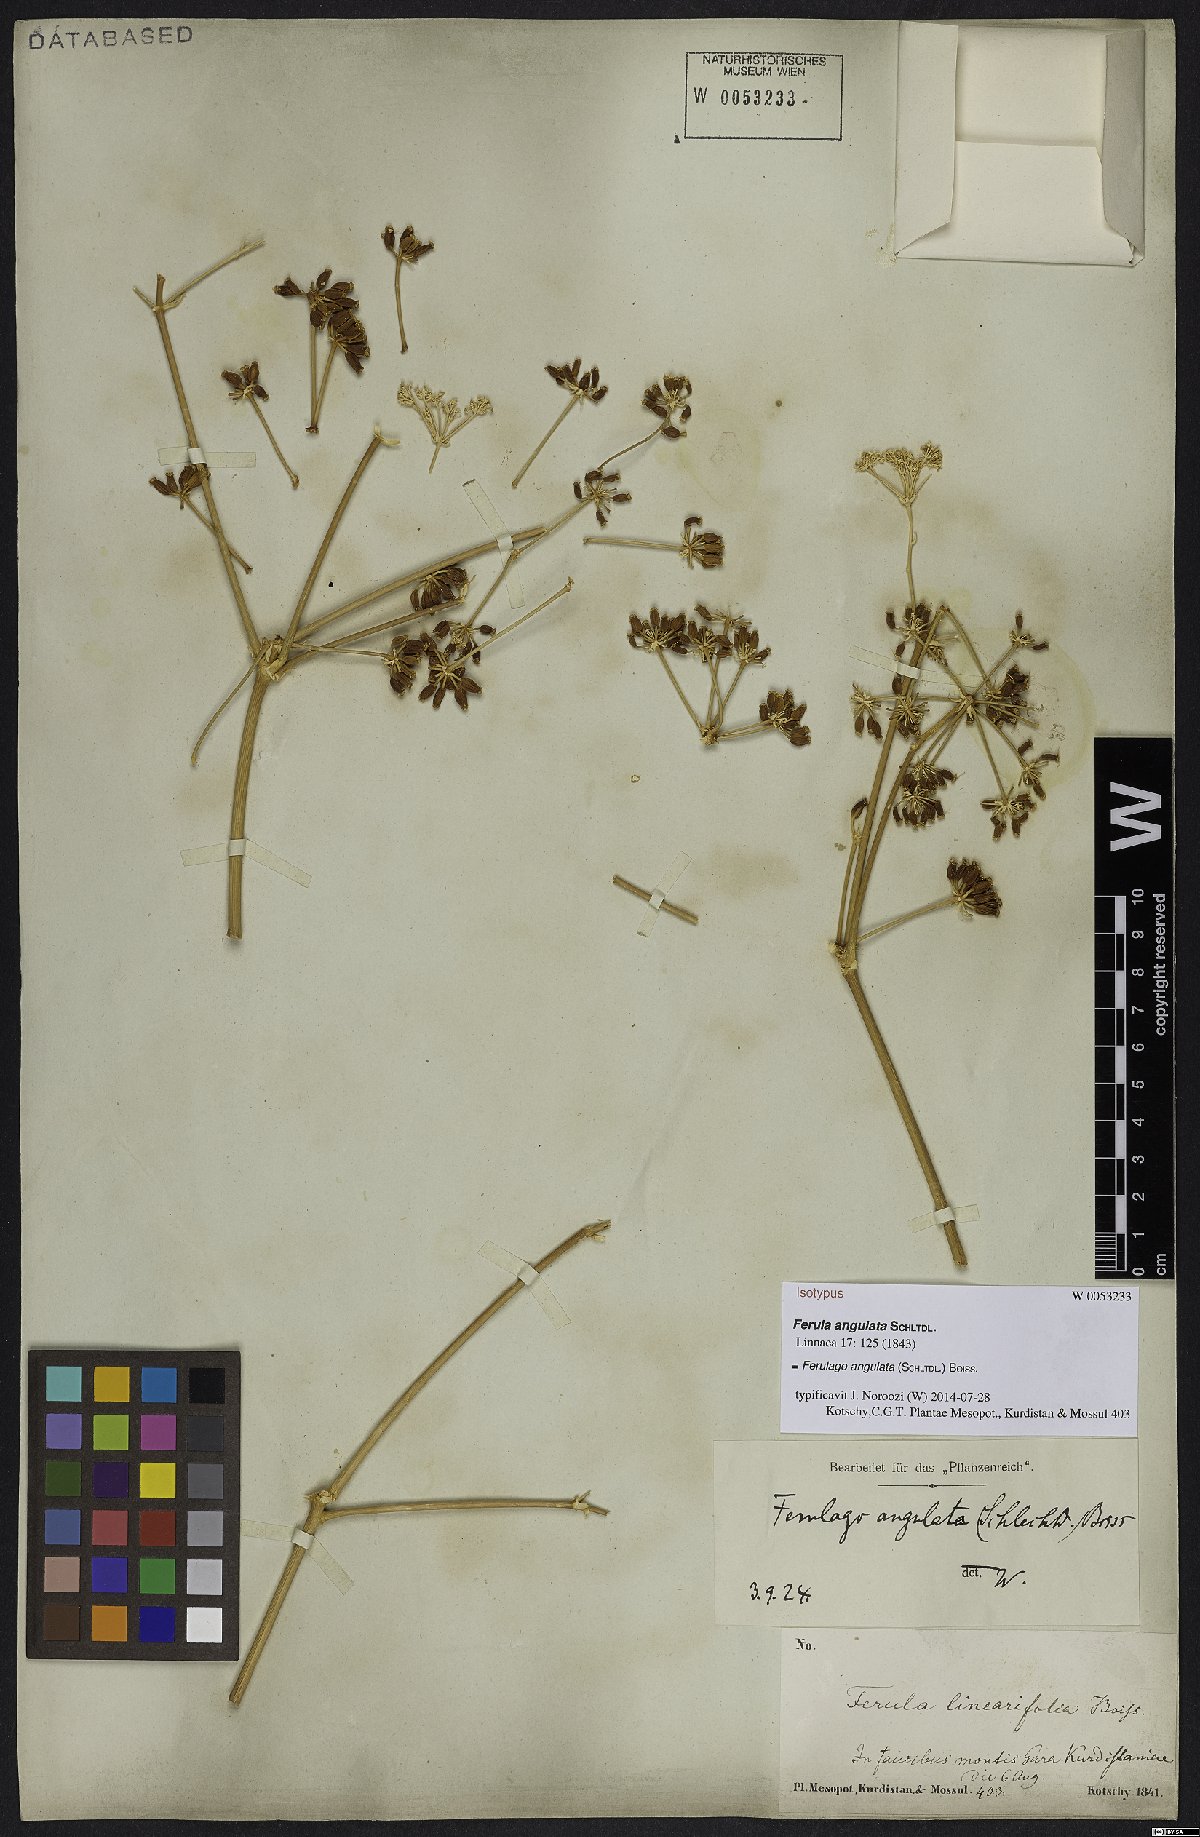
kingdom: Plantae
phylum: Tracheophyta
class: Magnoliopsida
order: Apiales
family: Apiaceae
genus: Ferulago
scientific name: Ferulago angulata
